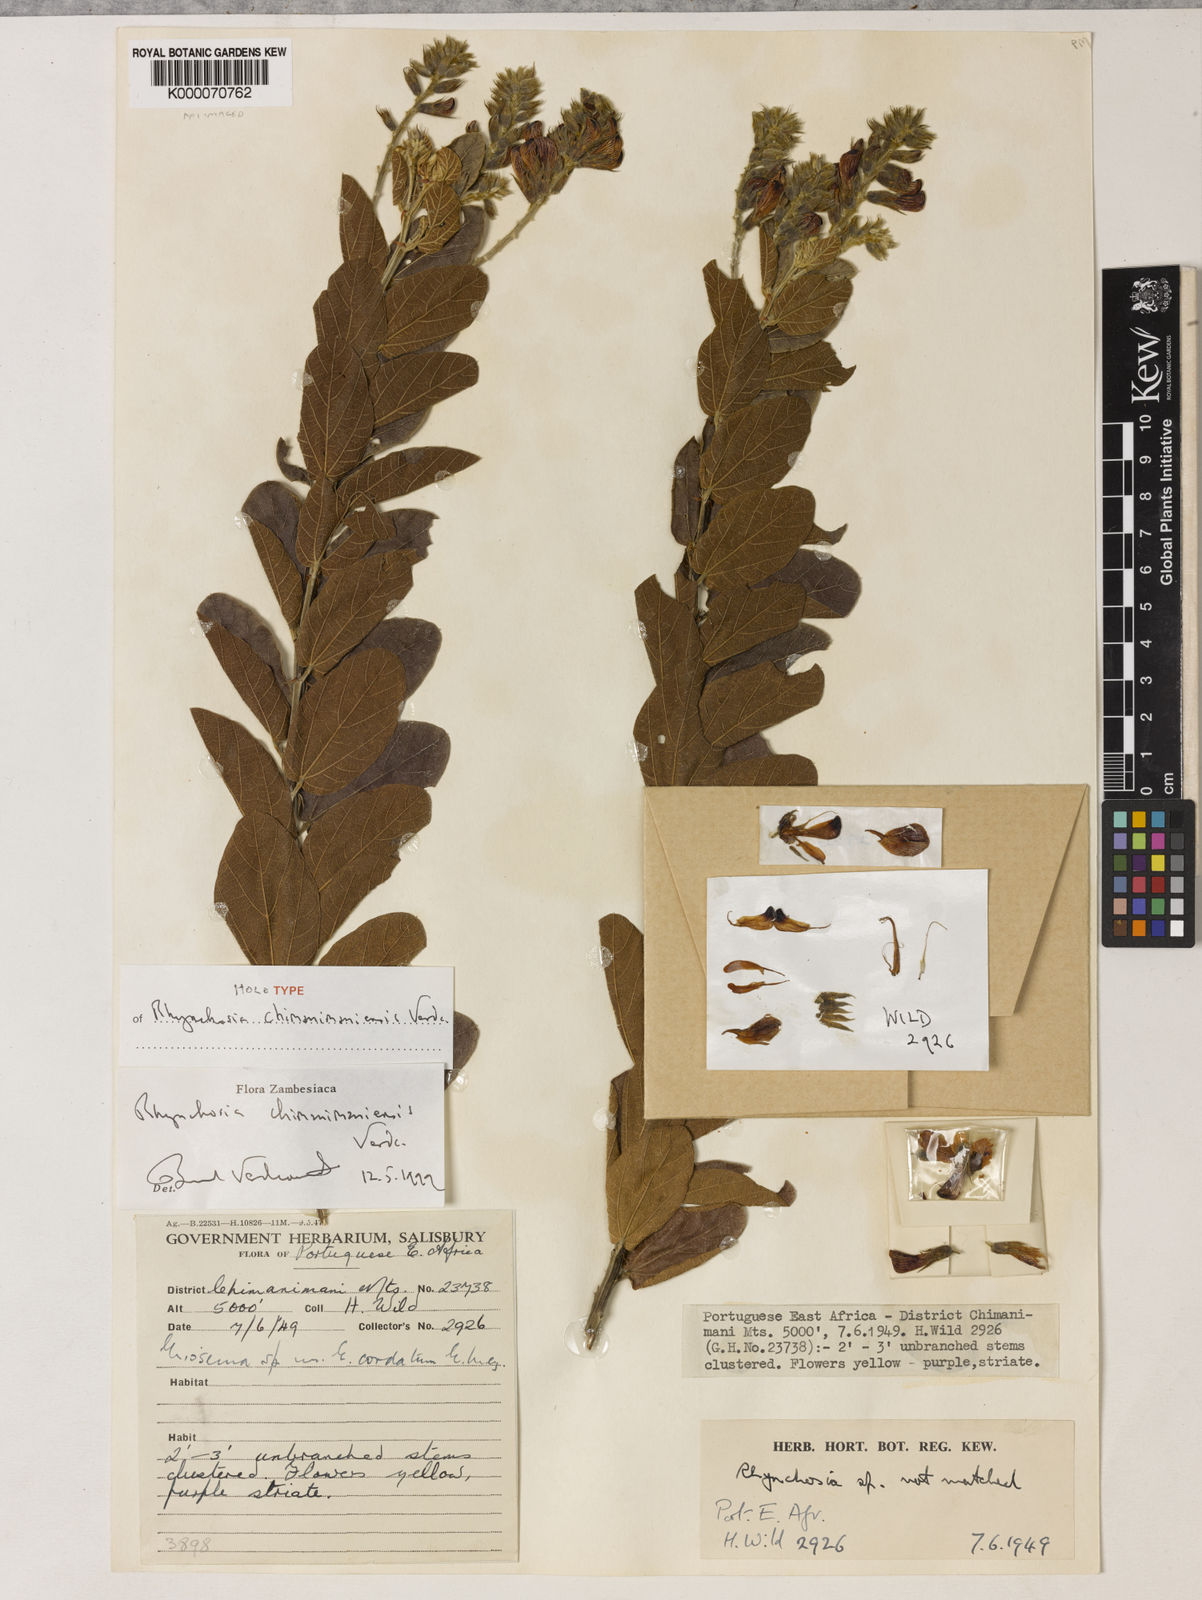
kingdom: Plantae
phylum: Tracheophyta
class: Magnoliopsida
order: Fabales
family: Fabaceae
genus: Rhynchosia
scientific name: Rhynchosia chimanimaniensis
